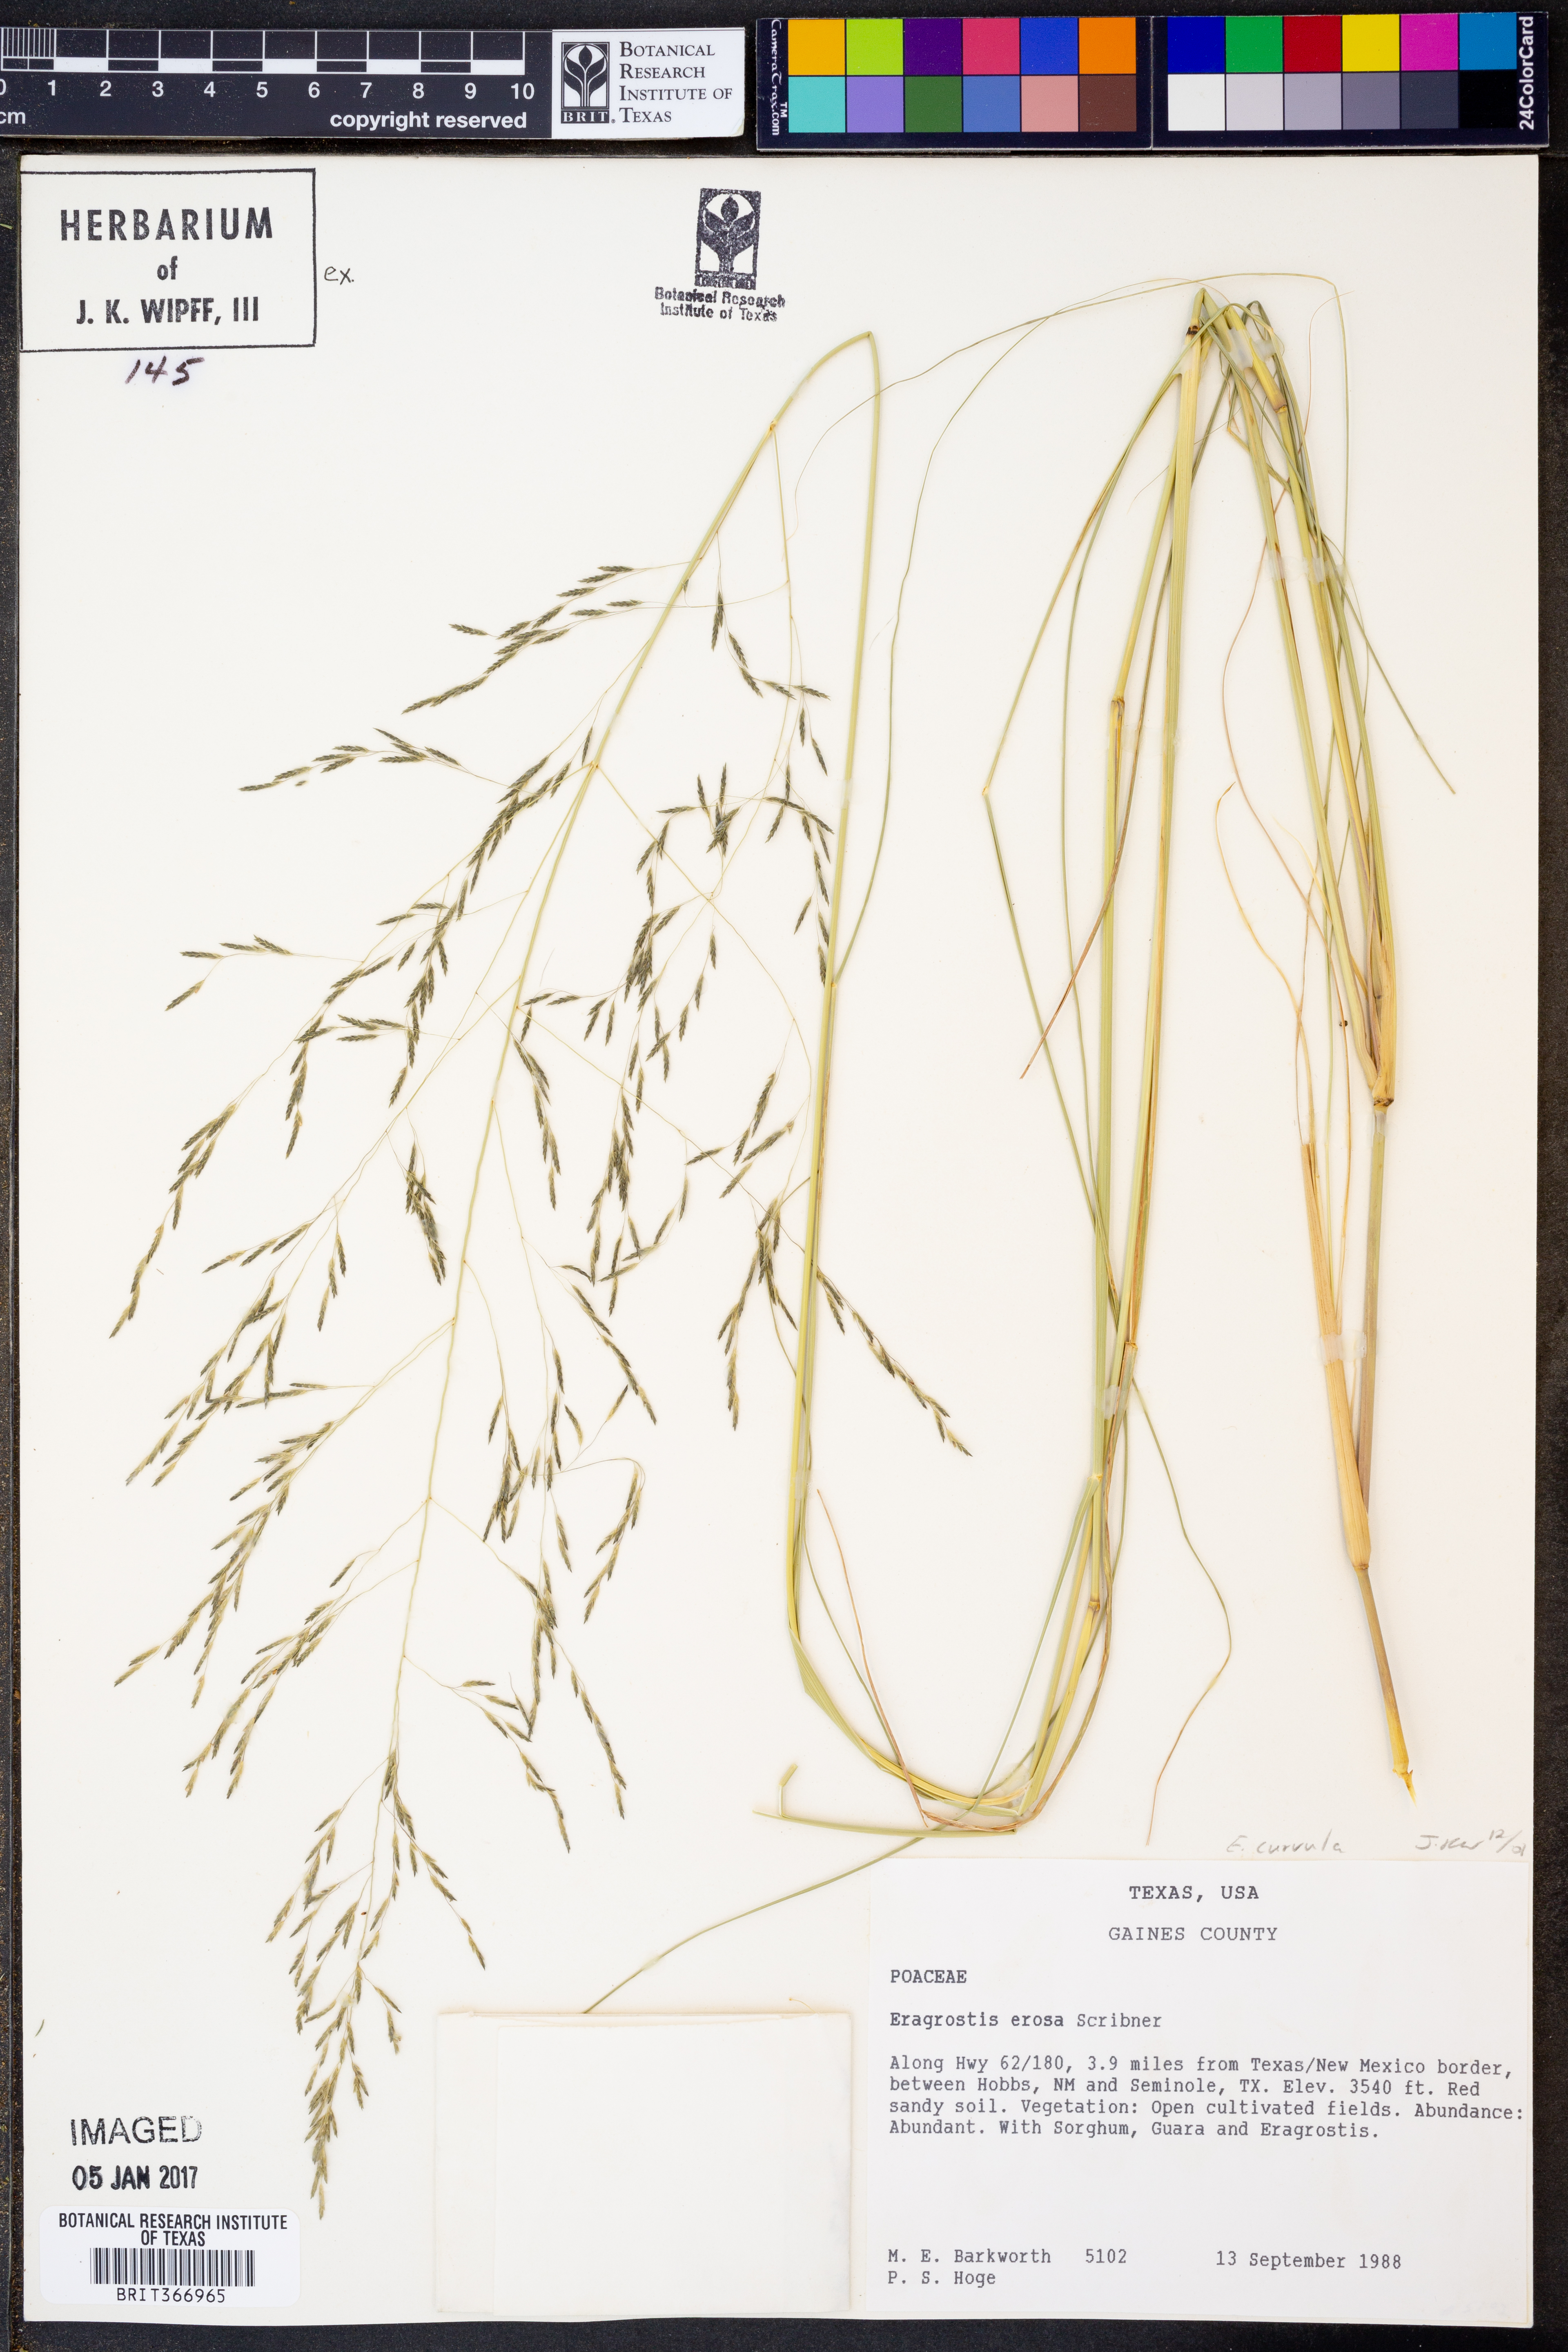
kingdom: Plantae
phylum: Tracheophyta
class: Liliopsida
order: Poales
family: Poaceae
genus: Eragrostis
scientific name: Eragrostis curvula
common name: African love-grass
